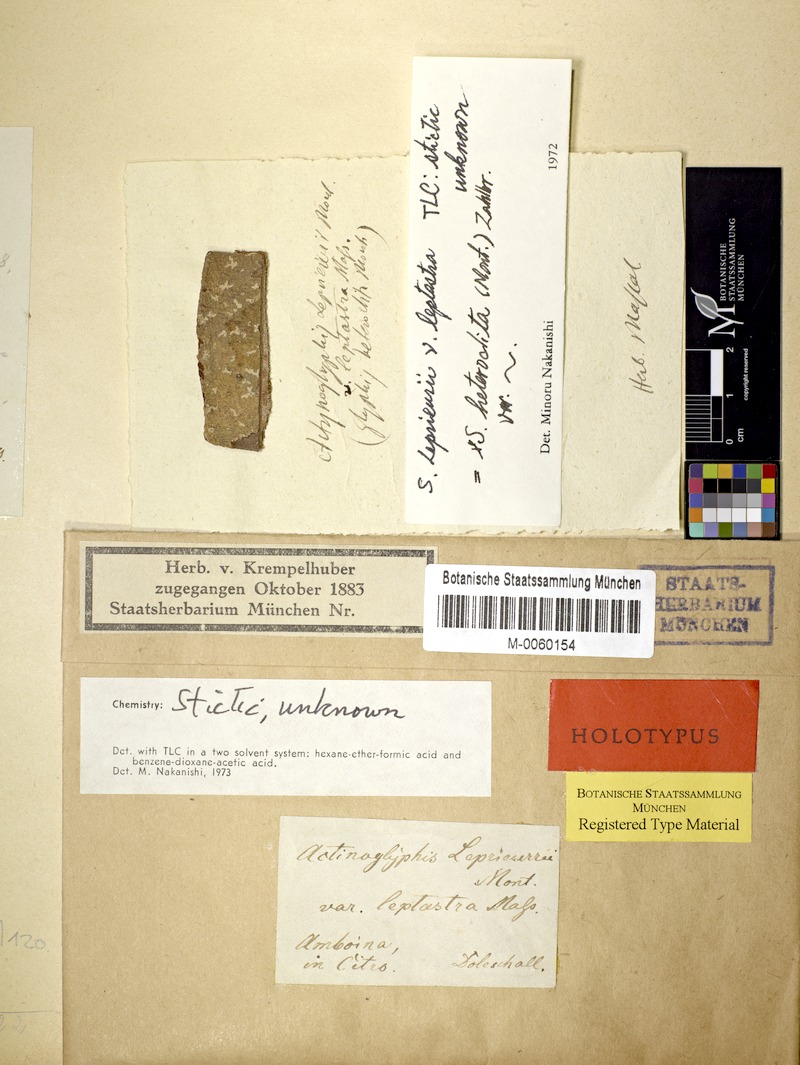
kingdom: Fungi
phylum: Ascomycota
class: Lecanoromycetes
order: Ostropales
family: Graphidaceae
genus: Sarcographa
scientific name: Sarcographa leprieurii
